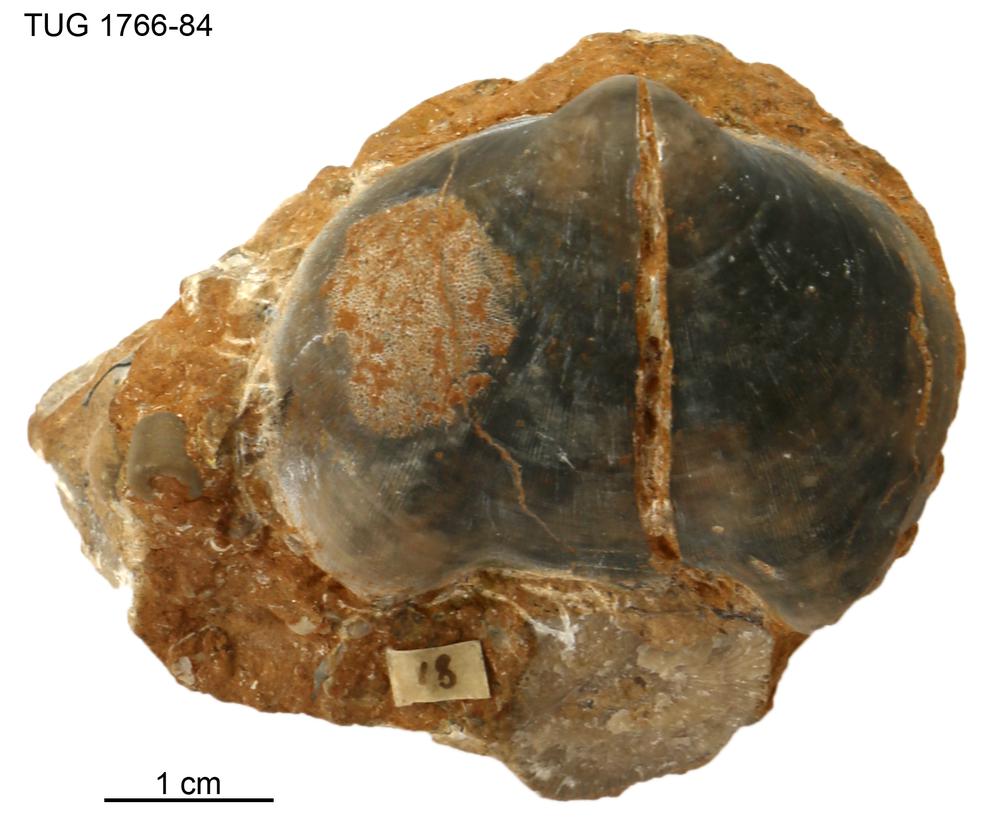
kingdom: Animalia
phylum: Bryozoa
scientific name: Bryozoa
